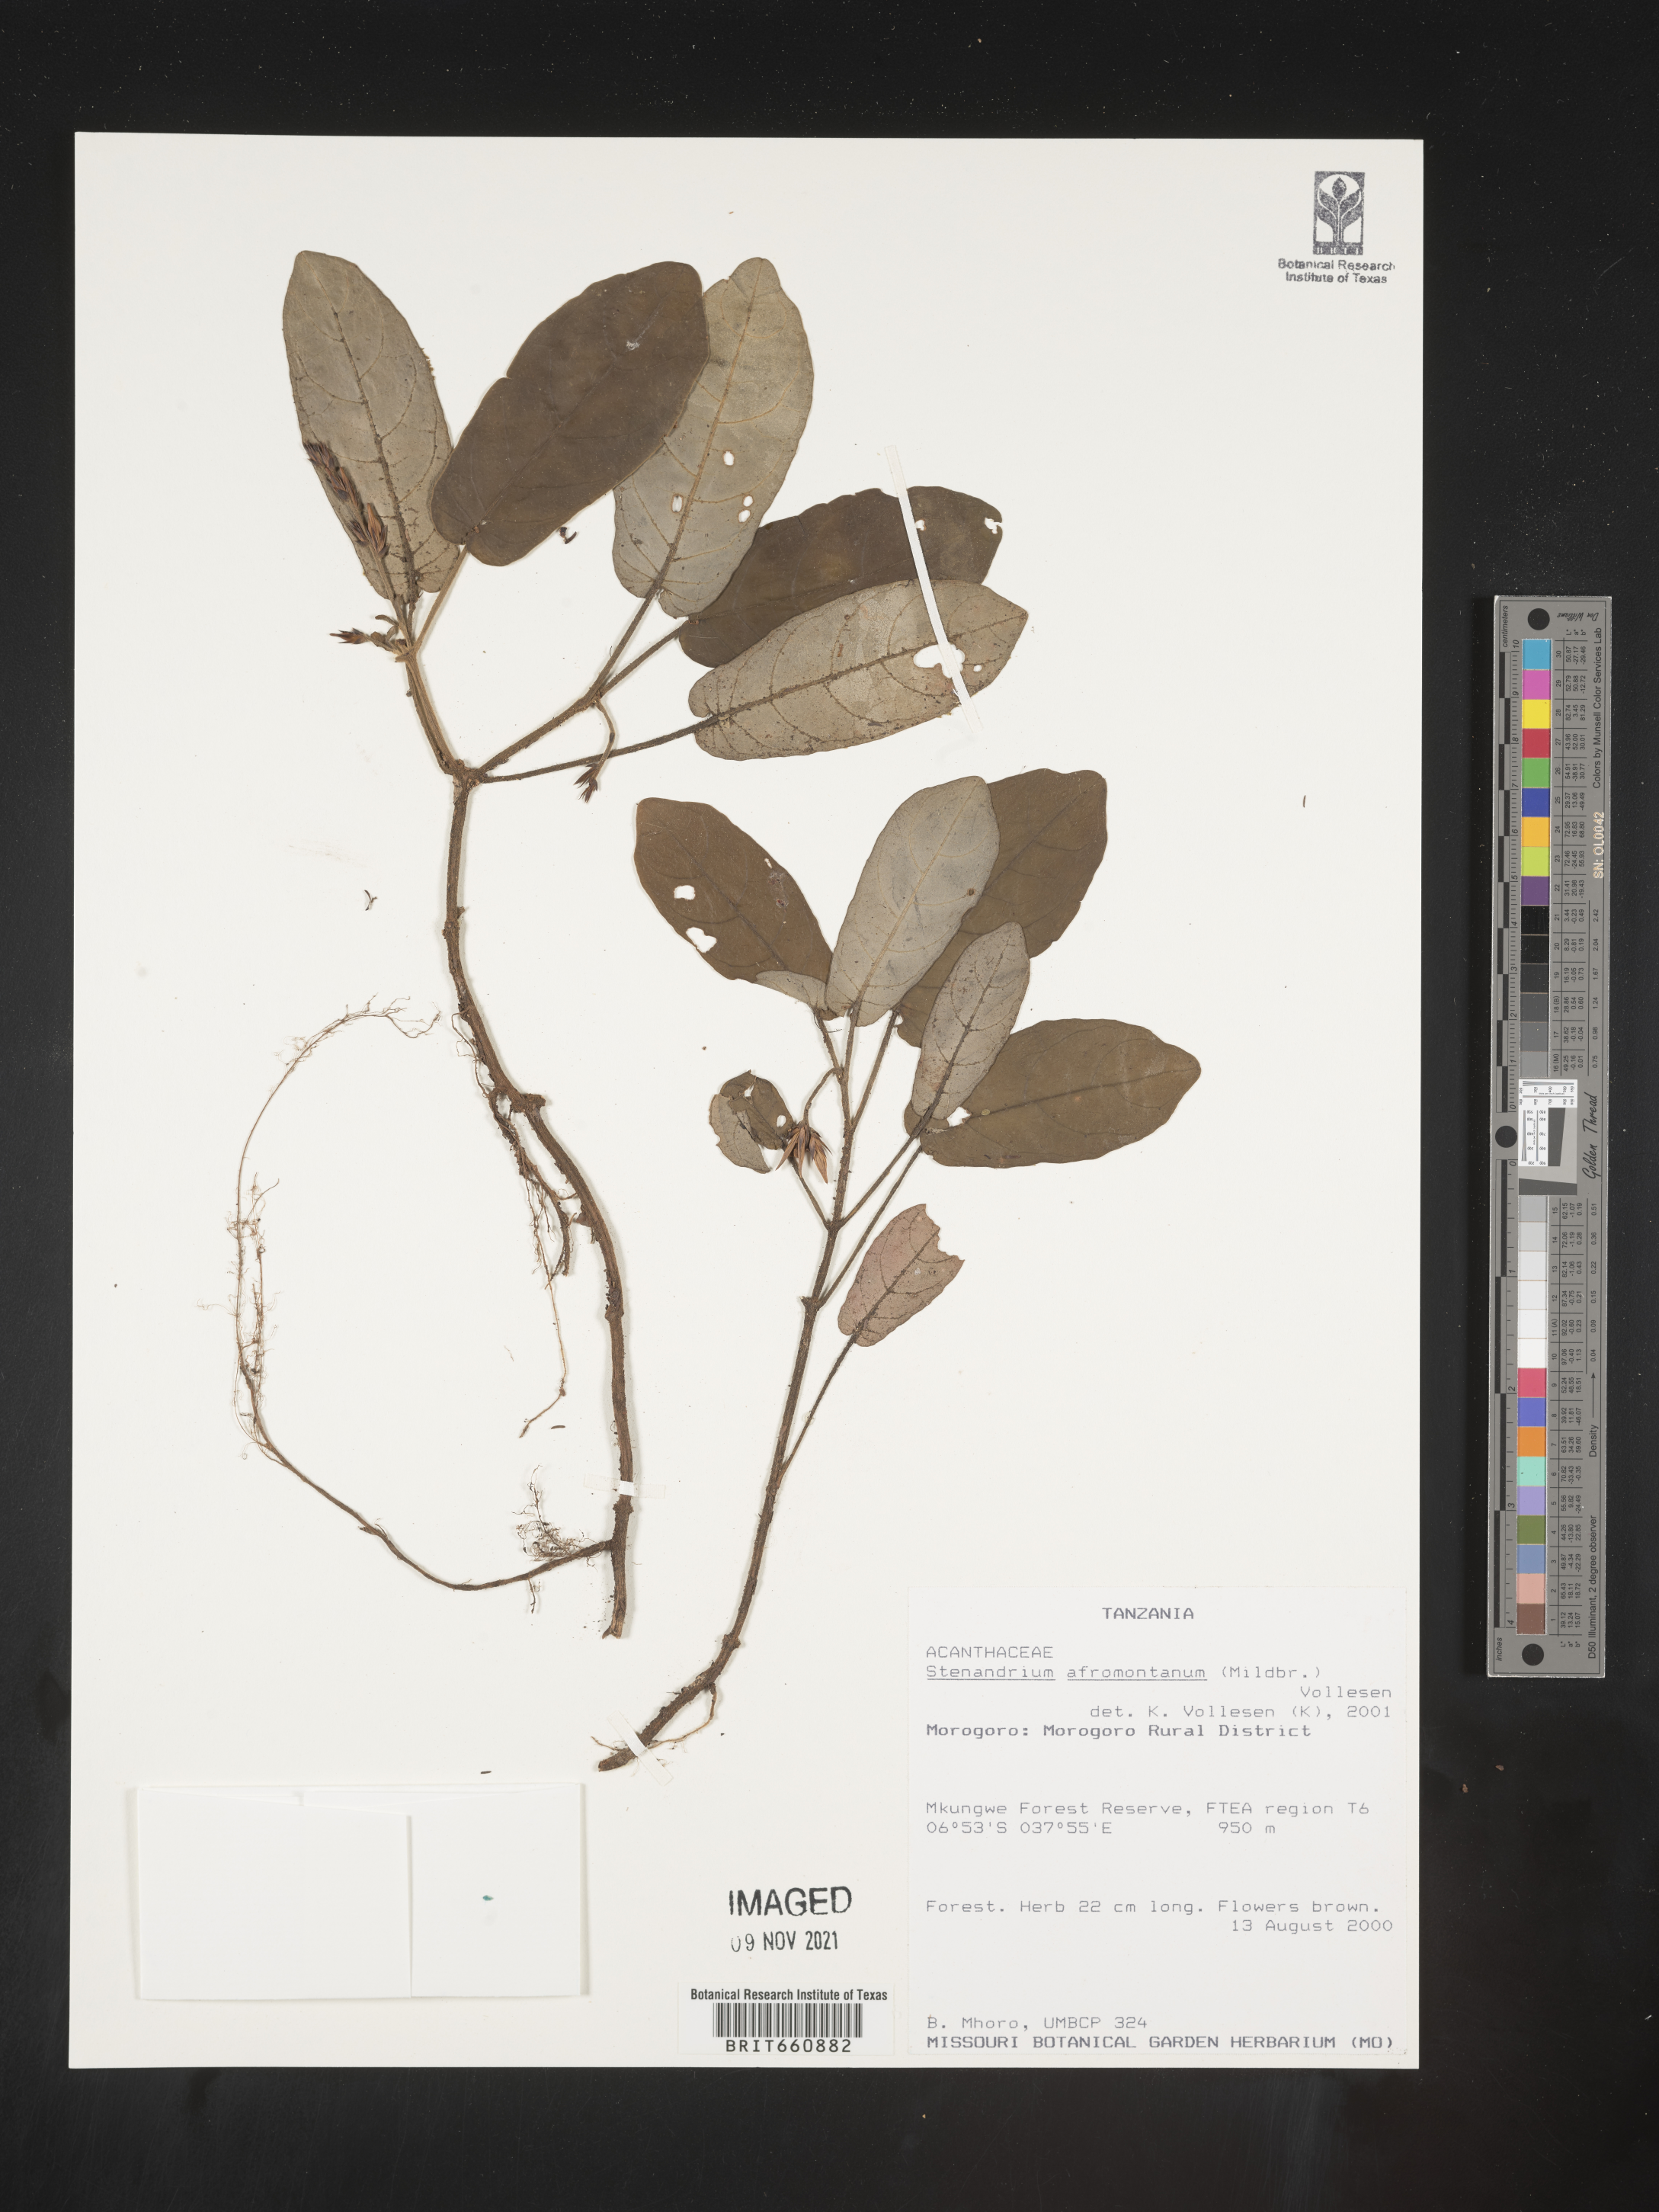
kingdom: Plantae
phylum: Tracheophyta
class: Magnoliopsida
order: Lamiales
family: Acanthaceae
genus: Stenandrium
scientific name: Stenandrium
